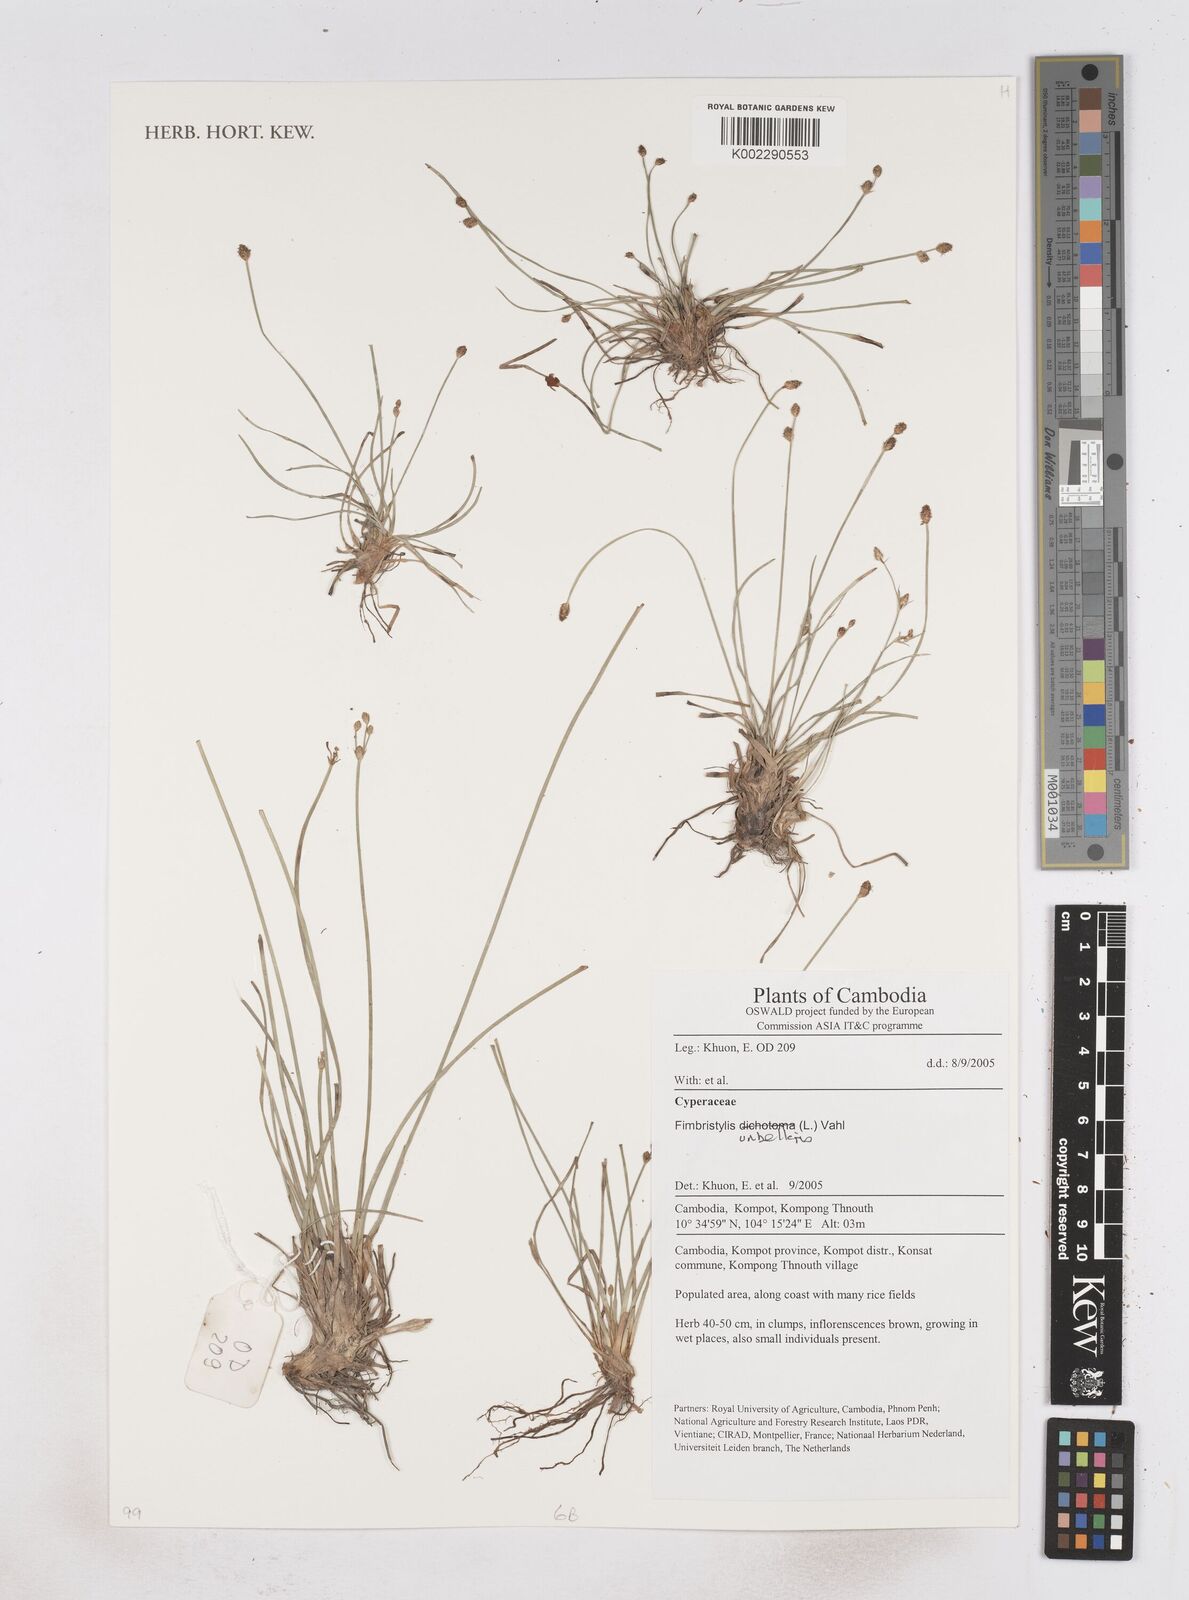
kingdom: Plantae
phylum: Tracheophyta
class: Liliopsida
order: Poales
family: Cyperaceae
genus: Fimbristylis
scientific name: Fimbristylis umbellaris
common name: Globular fimbristylis
